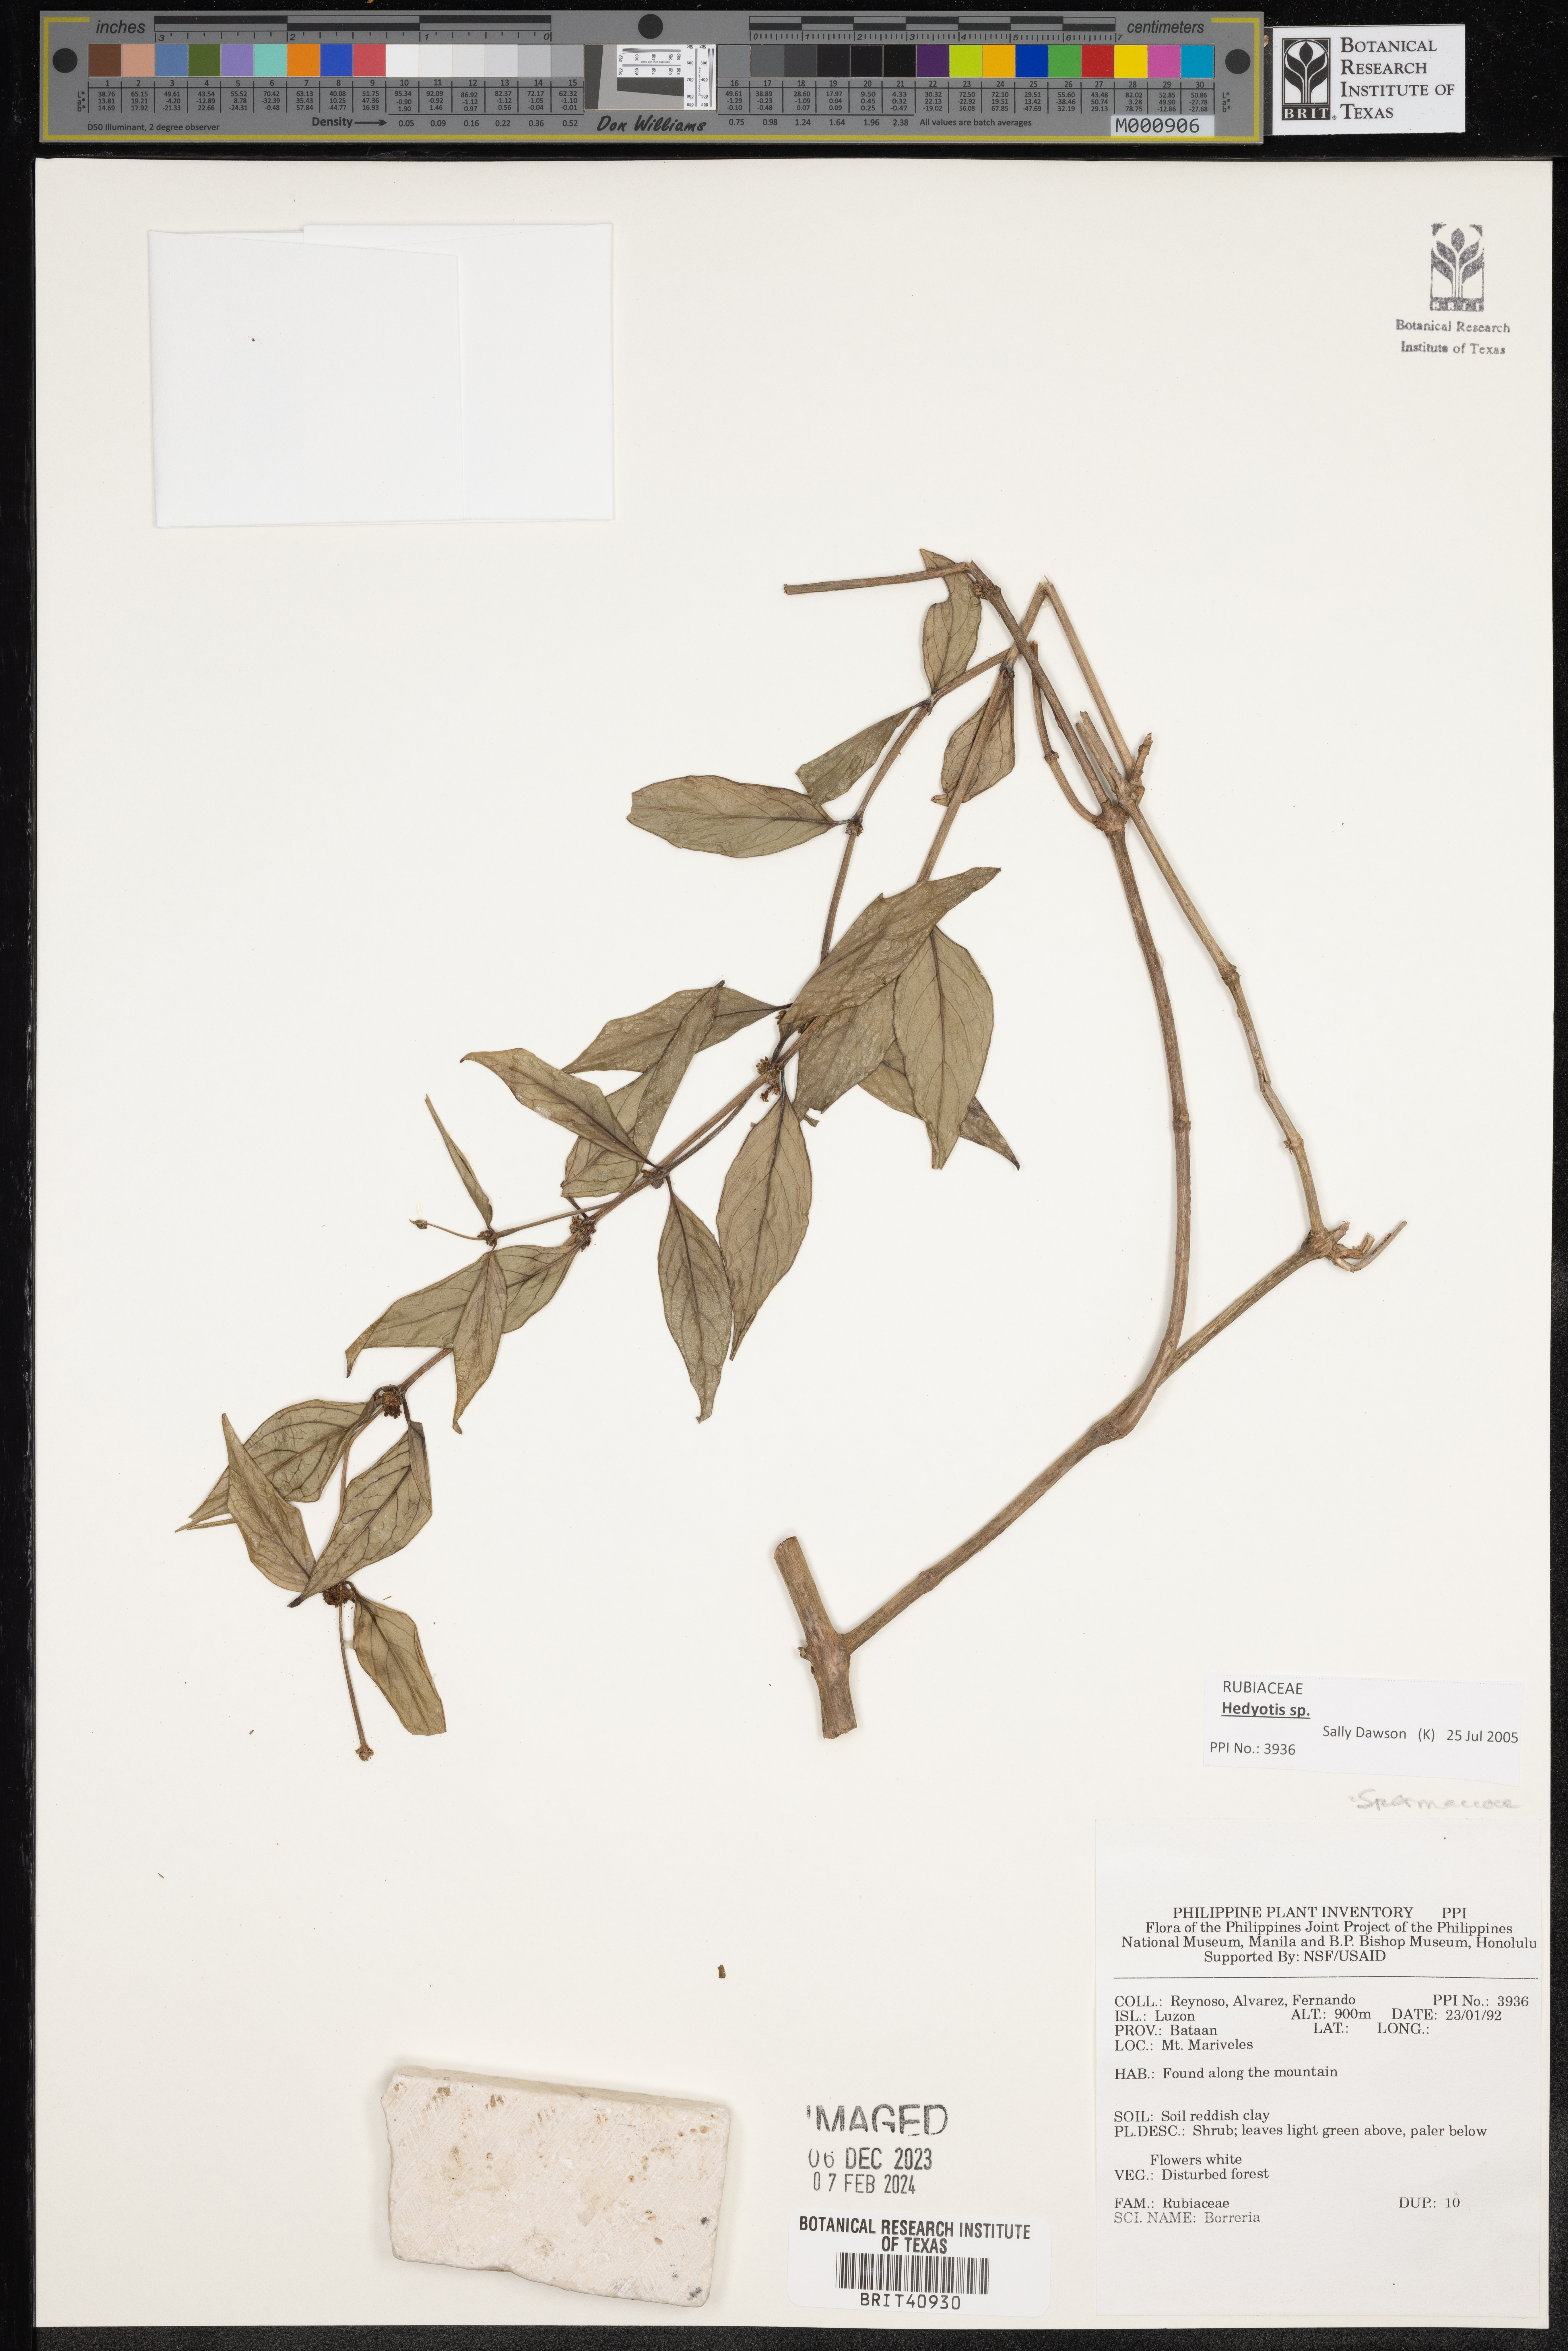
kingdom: Plantae
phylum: Tracheophyta
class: Magnoliopsida
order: Gentianales
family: Rubiaceae
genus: Spermacoce
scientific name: Spermacoce
